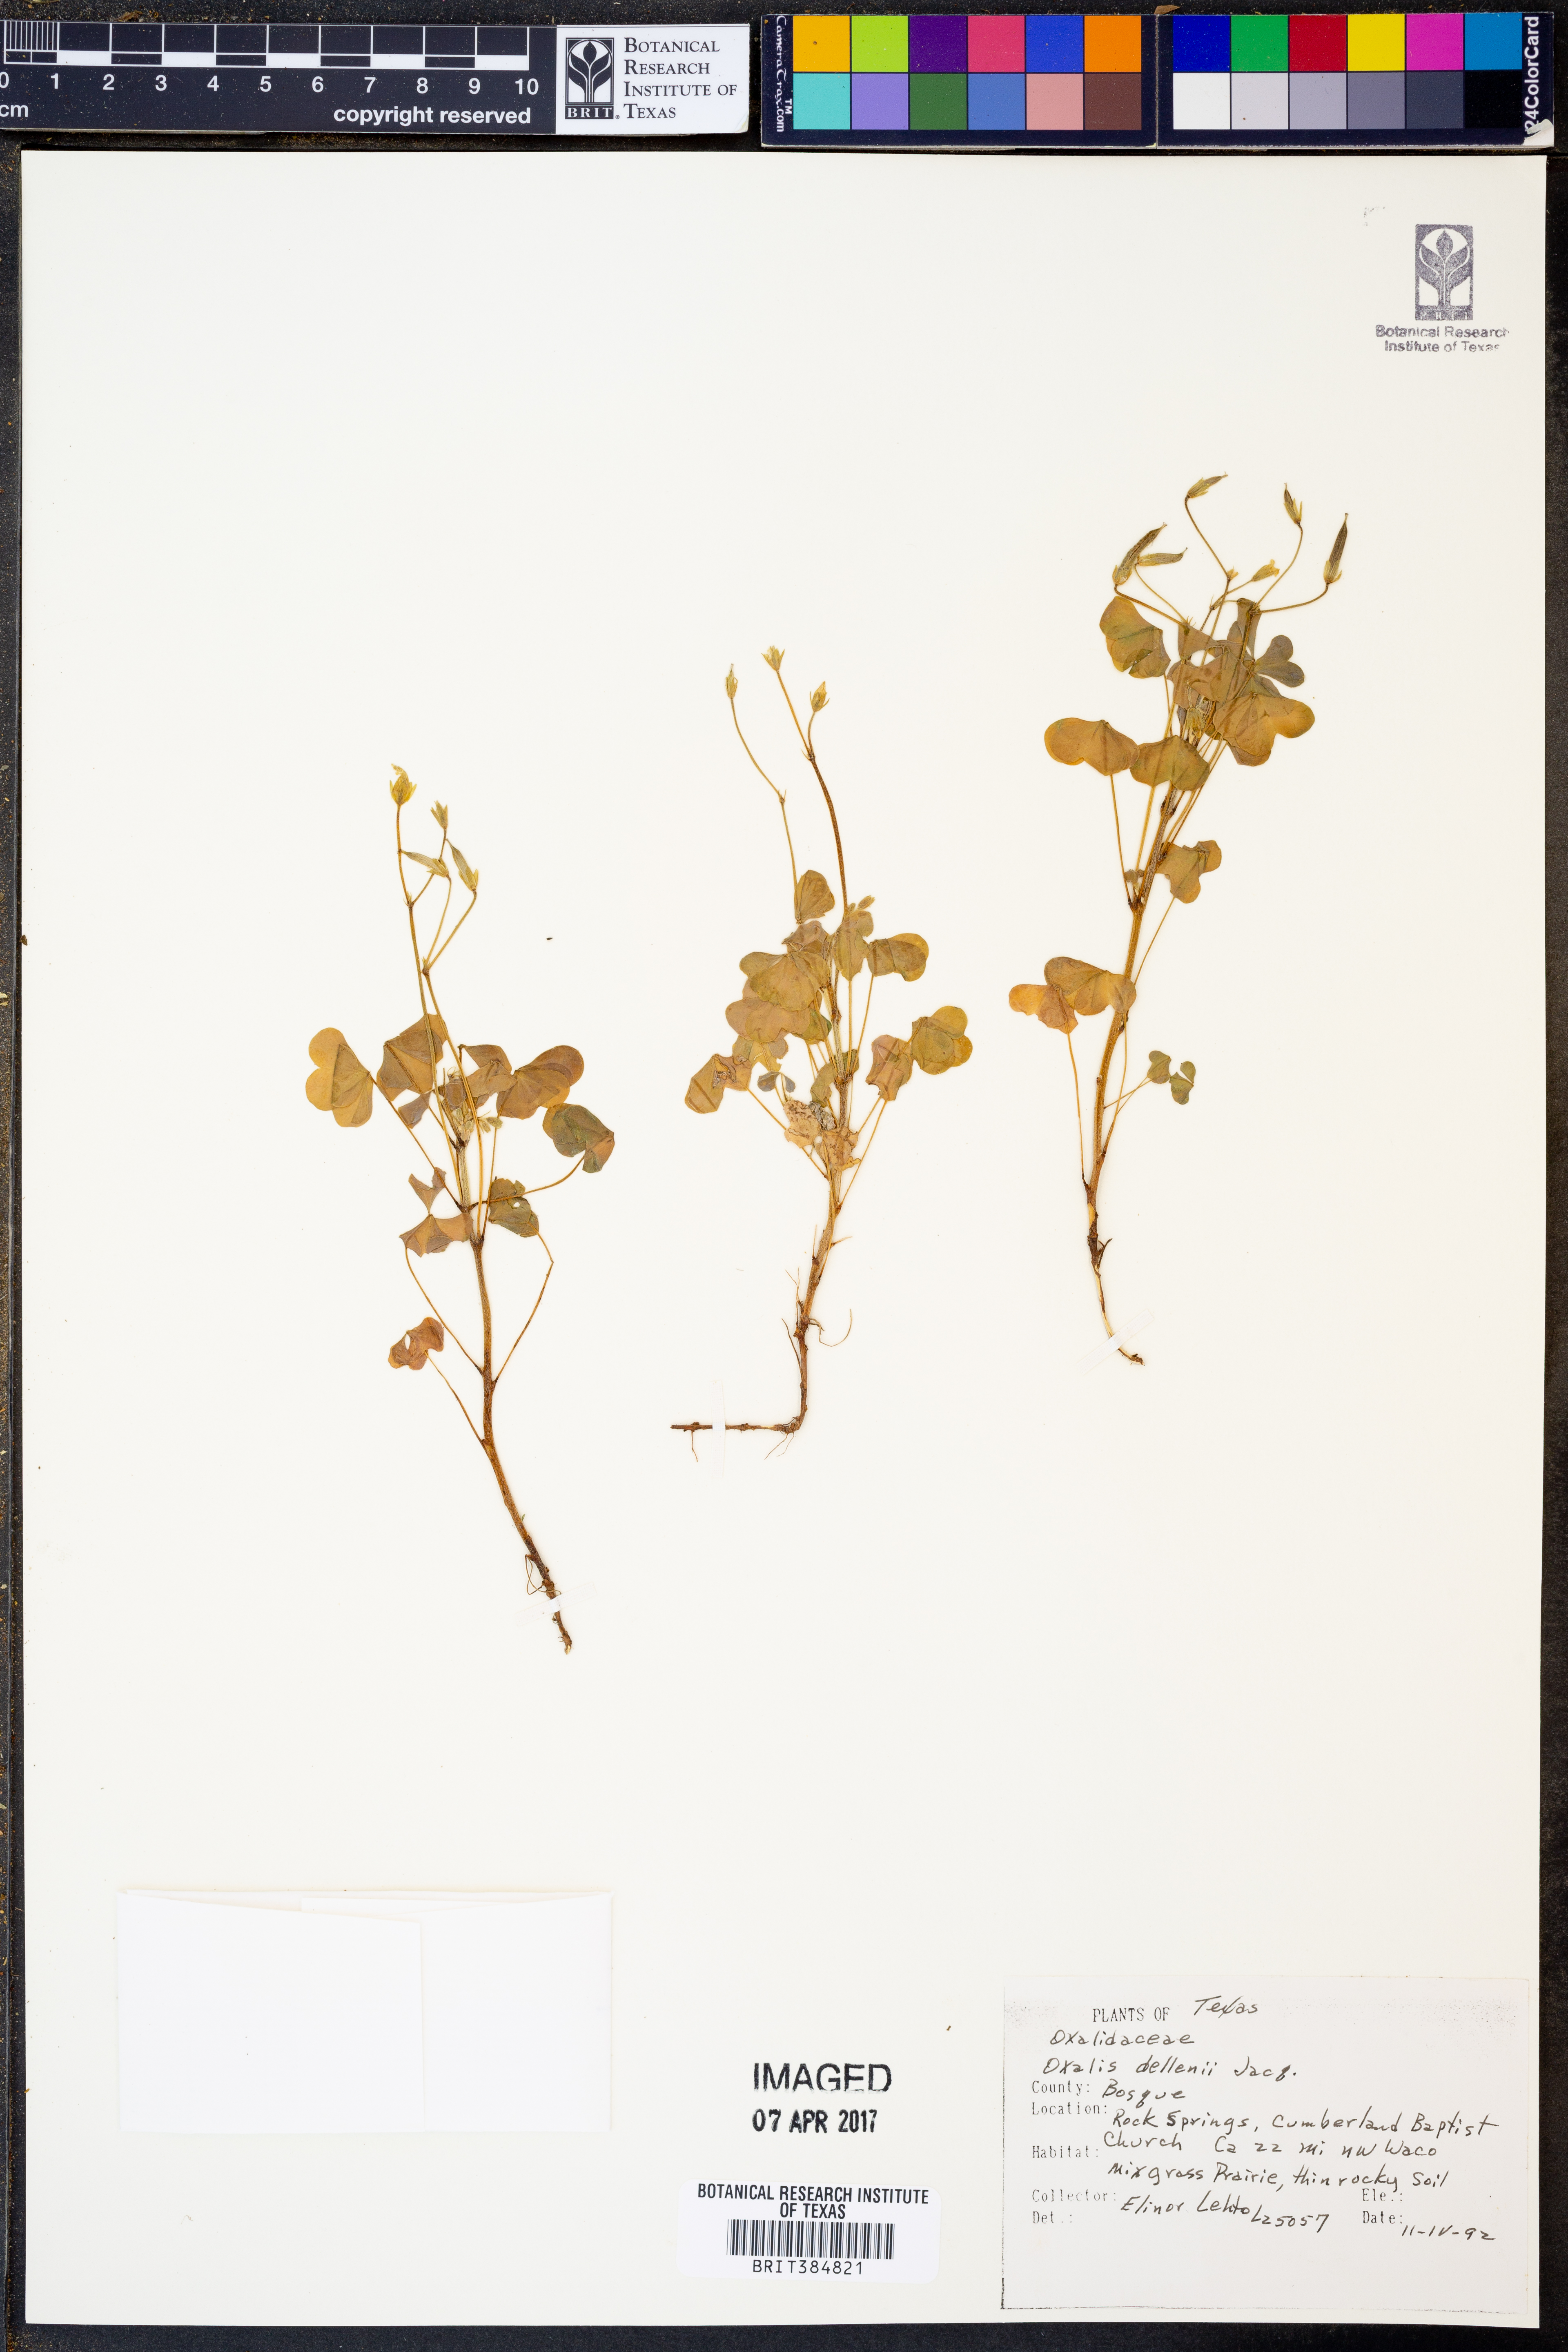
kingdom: Plantae
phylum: Tracheophyta
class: Magnoliopsida
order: Oxalidales
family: Oxalidaceae
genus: Oxalis
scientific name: Oxalis dillenii
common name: Sussex yellow-sorrel
